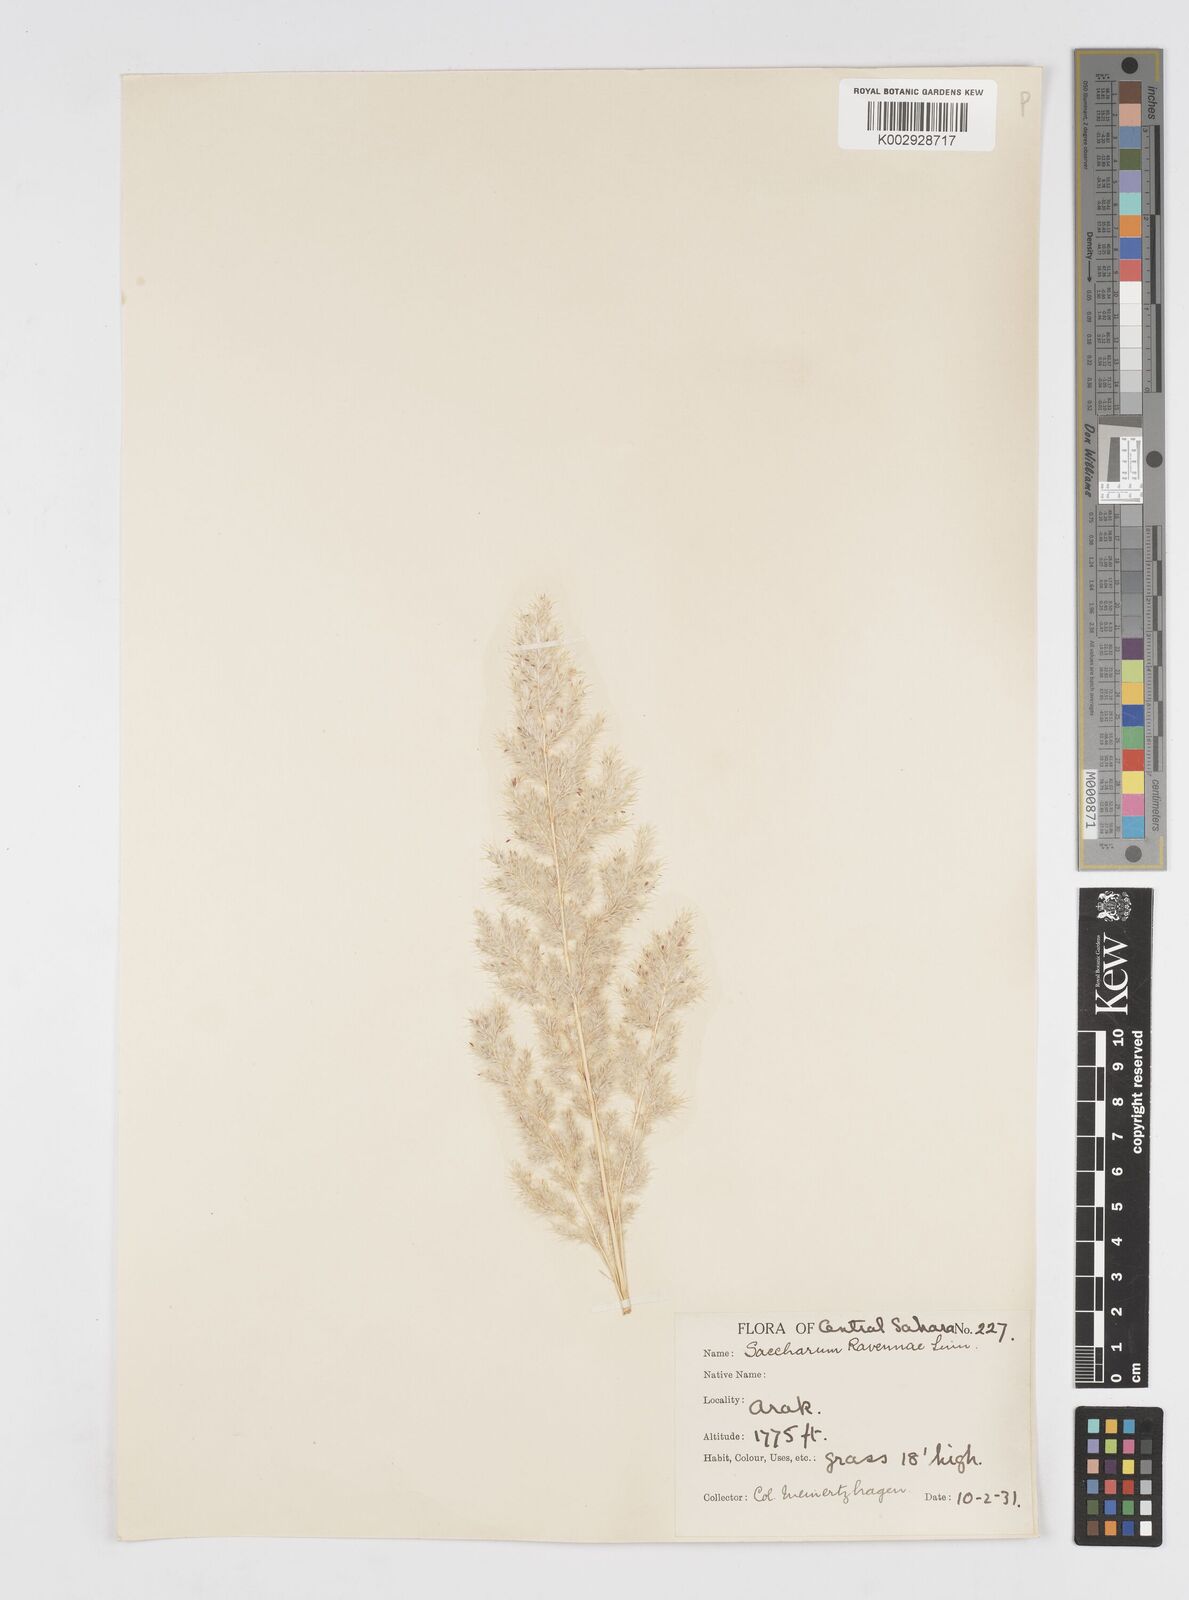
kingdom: Plantae
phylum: Tracheophyta
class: Liliopsida
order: Poales
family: Poaceae
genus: Tripidium
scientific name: Tripidium ravennae
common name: Ravenna grass
